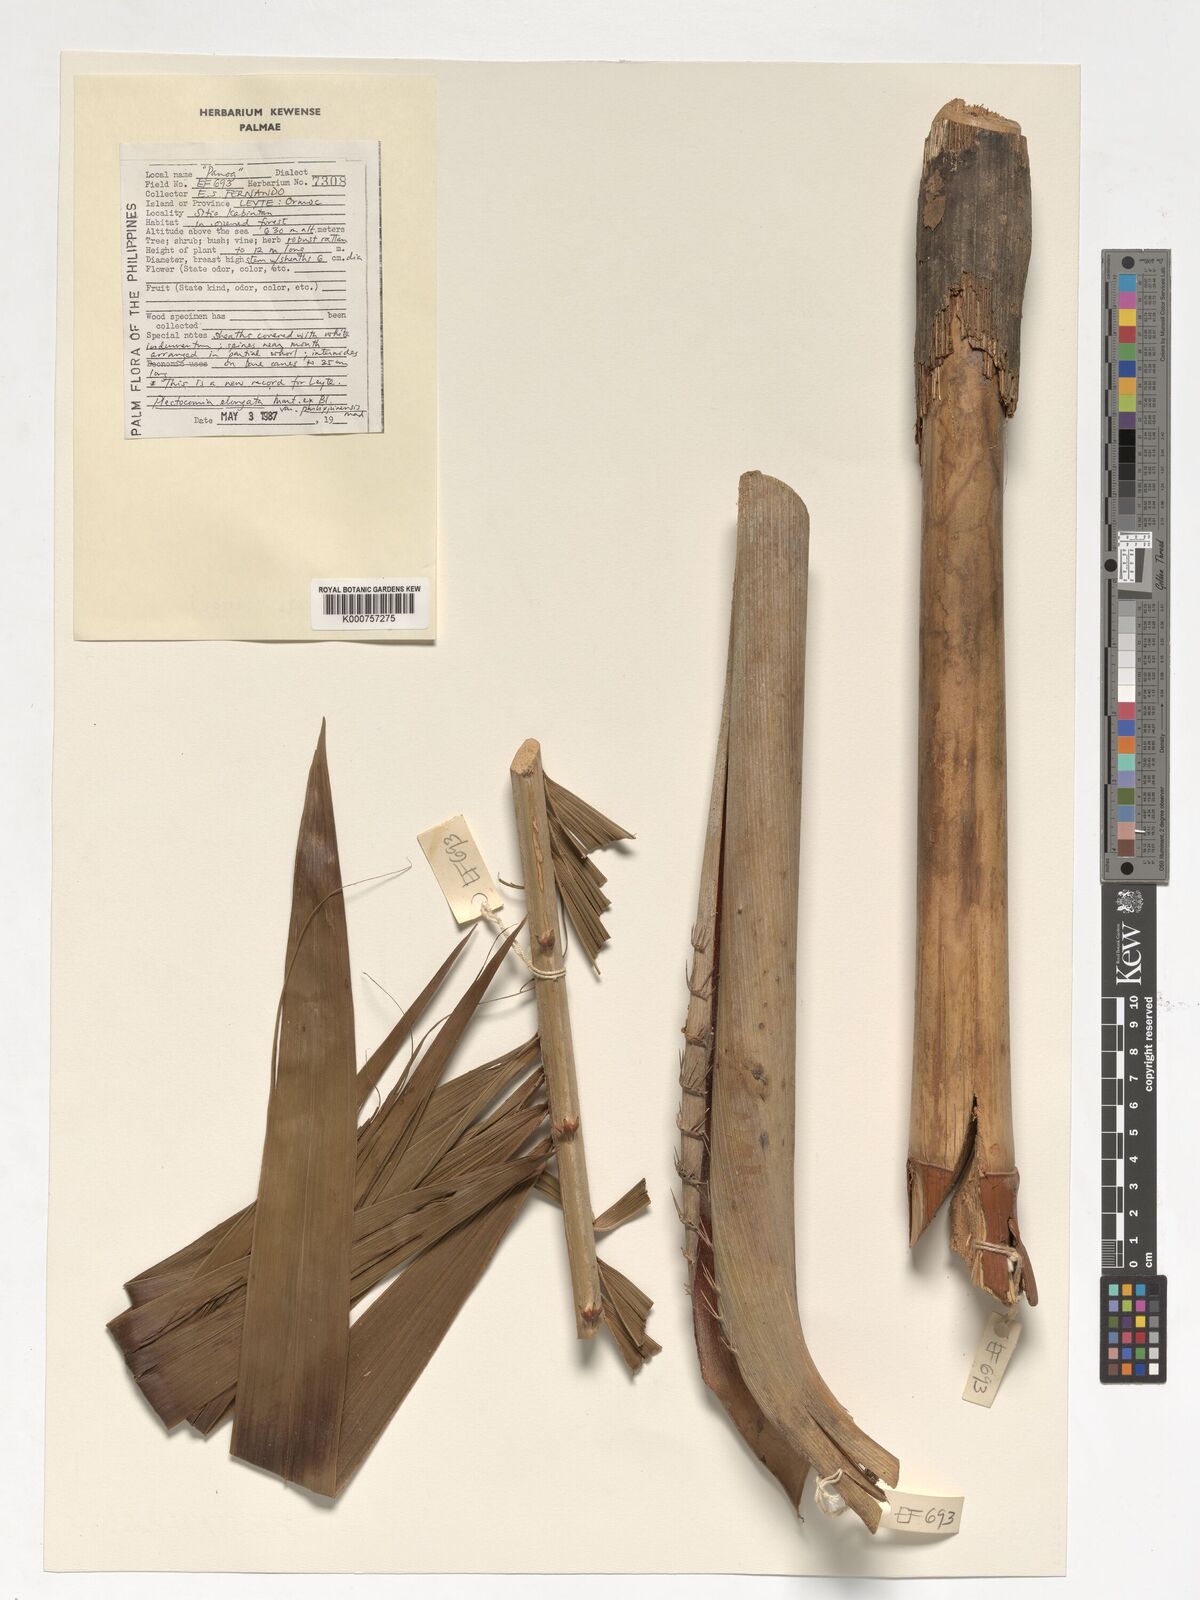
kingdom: Plantae
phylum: Tracheophyta
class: Liliopsida
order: Arecales
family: Arecaceae
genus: Plectocomia
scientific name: Plectocomia elongata
